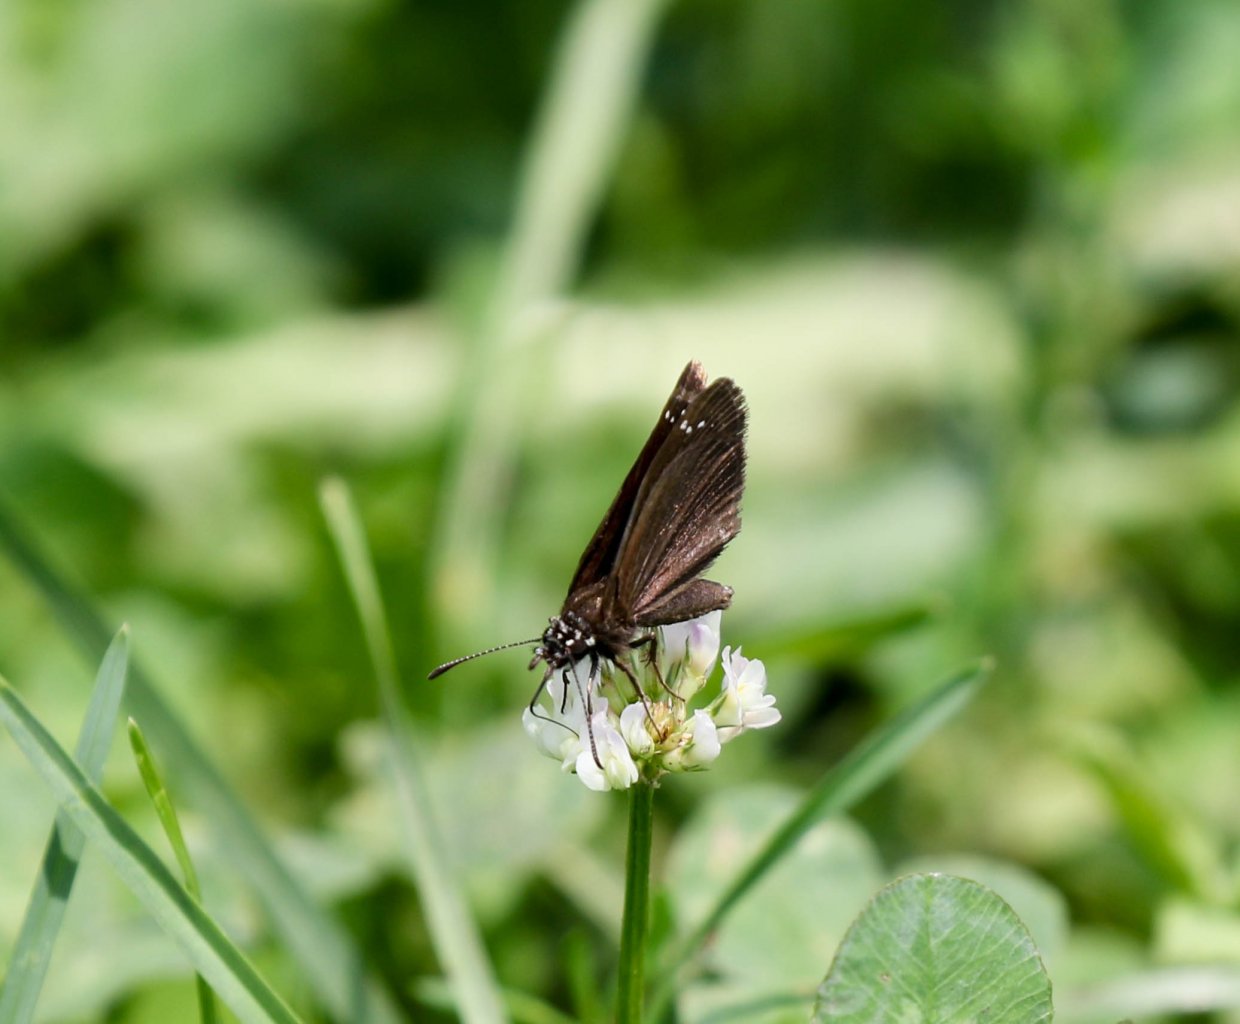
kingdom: Animalia
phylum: Arthropoda
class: Insecta
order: Lepidoptera
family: Hesperiidae
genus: Pholisora
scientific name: Pholisora catullus
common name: Common Sootywing
